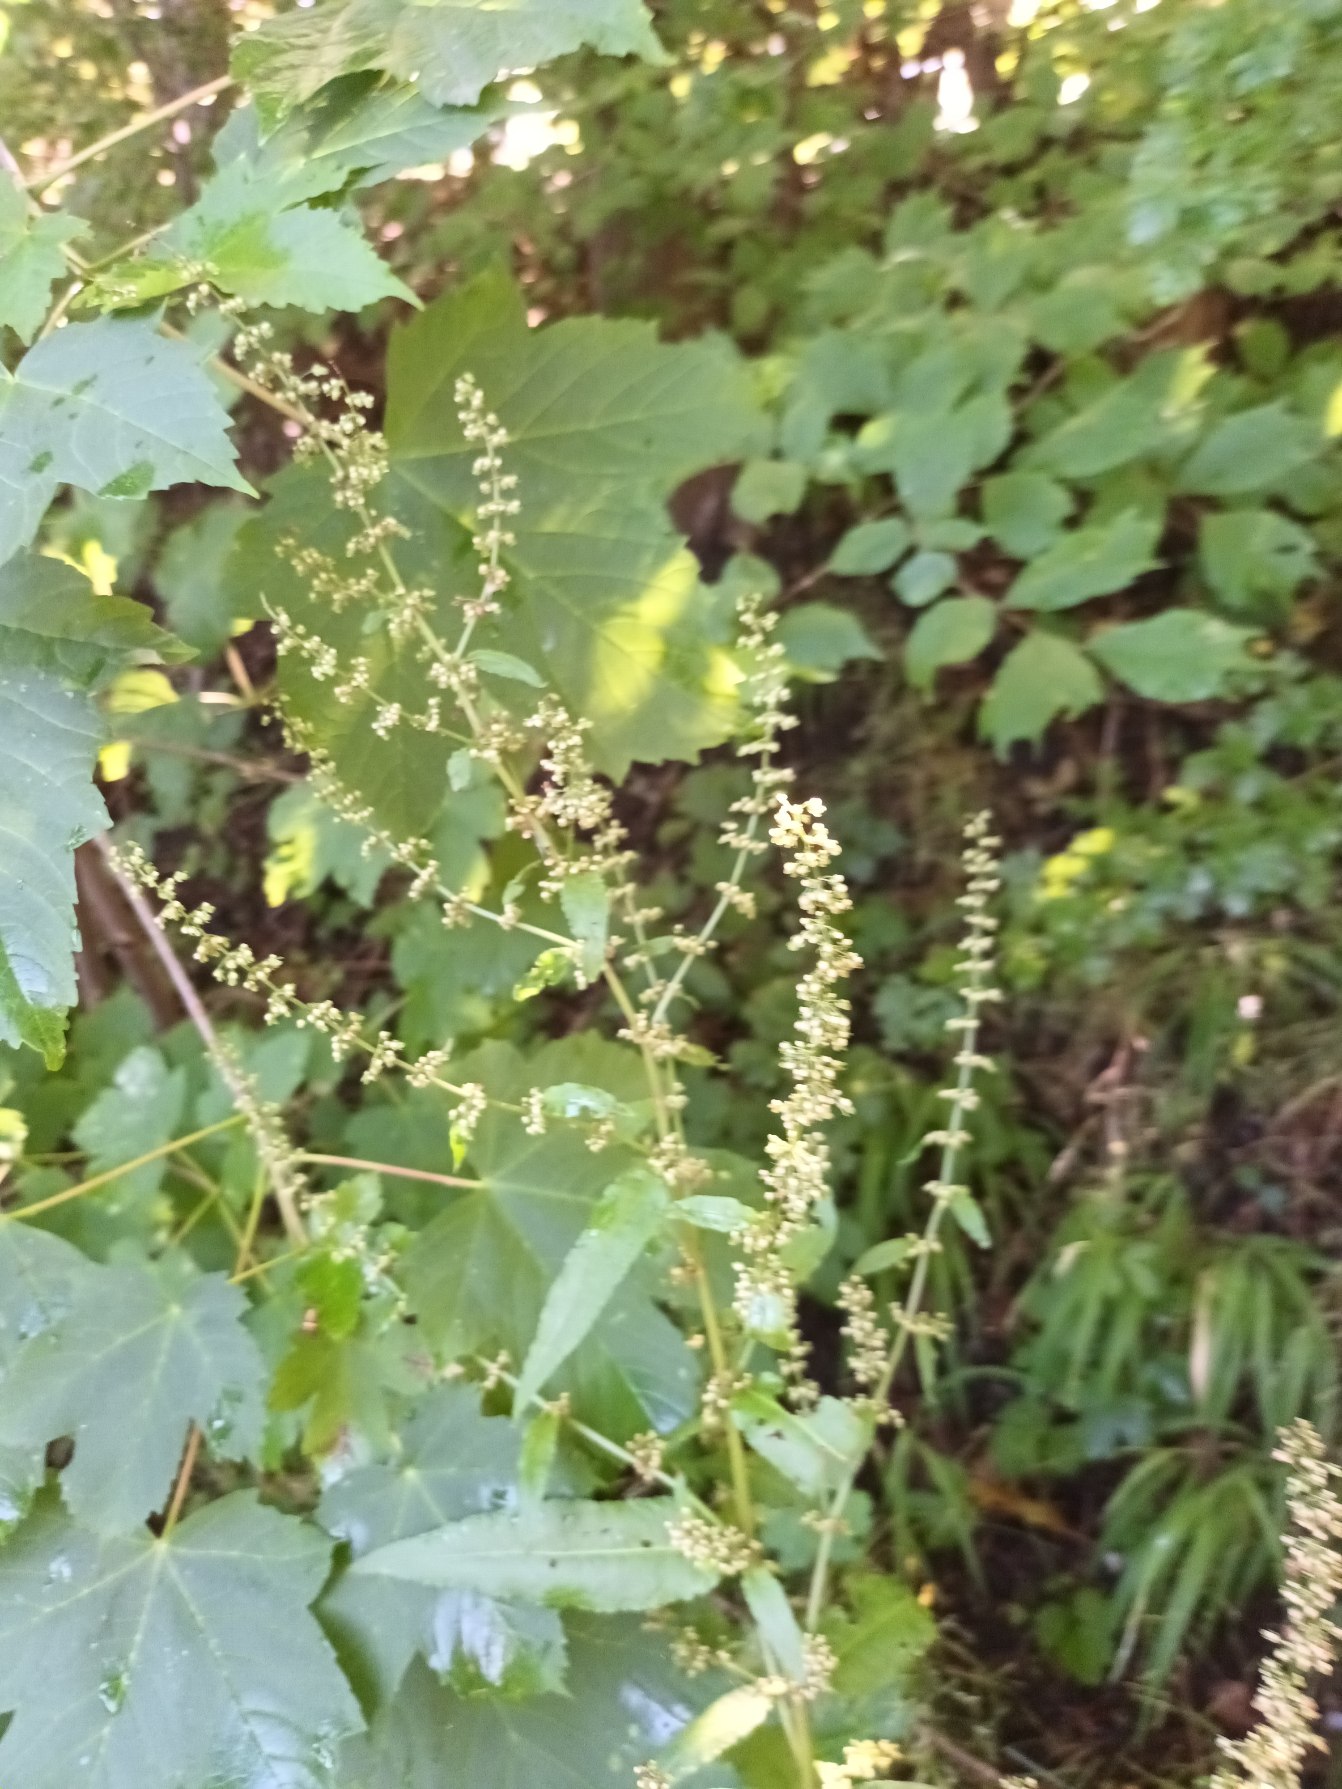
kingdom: Plantae
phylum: Tracheophyta
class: Magnoliopsida
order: Caryophyllales
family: Polygonaceae
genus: Rumex
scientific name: Rumex sanguineus
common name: Skov-skræppe
